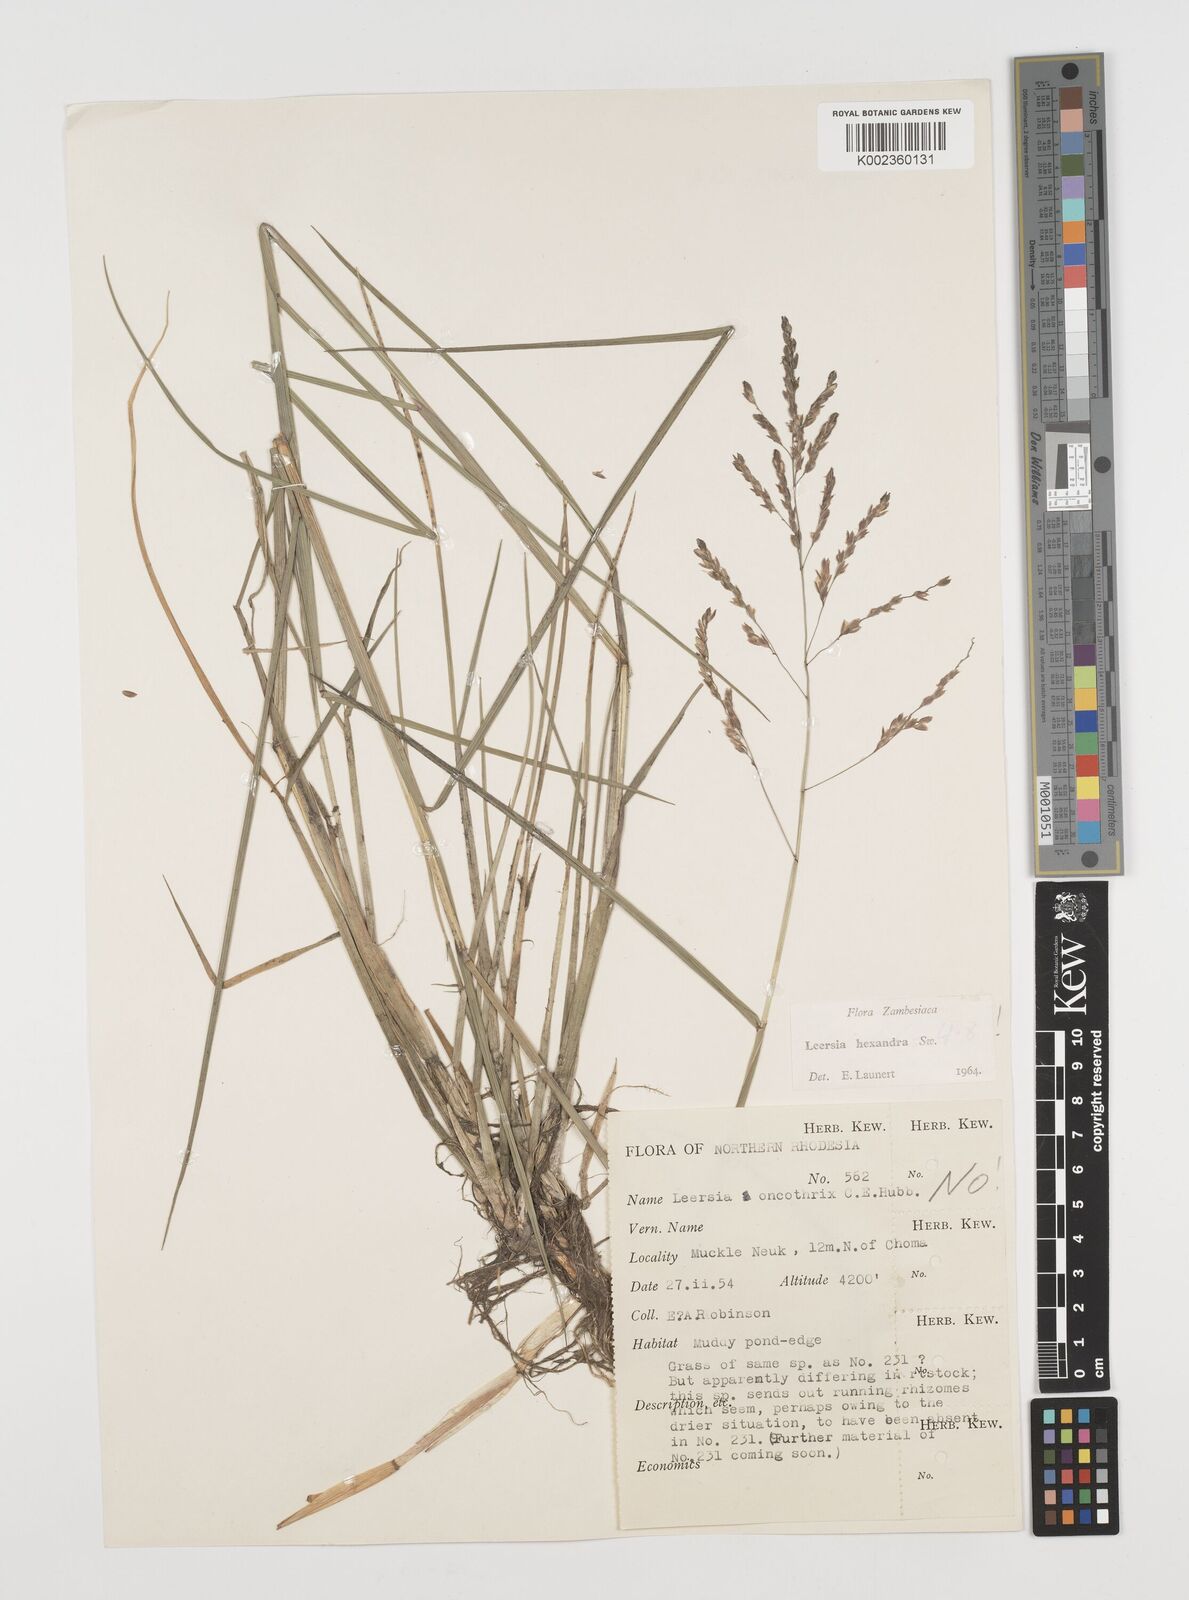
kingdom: Plantae
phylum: Tracheophyta
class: Liliopsida
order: Poales
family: Poaceae
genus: Leersia
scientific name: Leersia hexandra
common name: Southern cut grass
